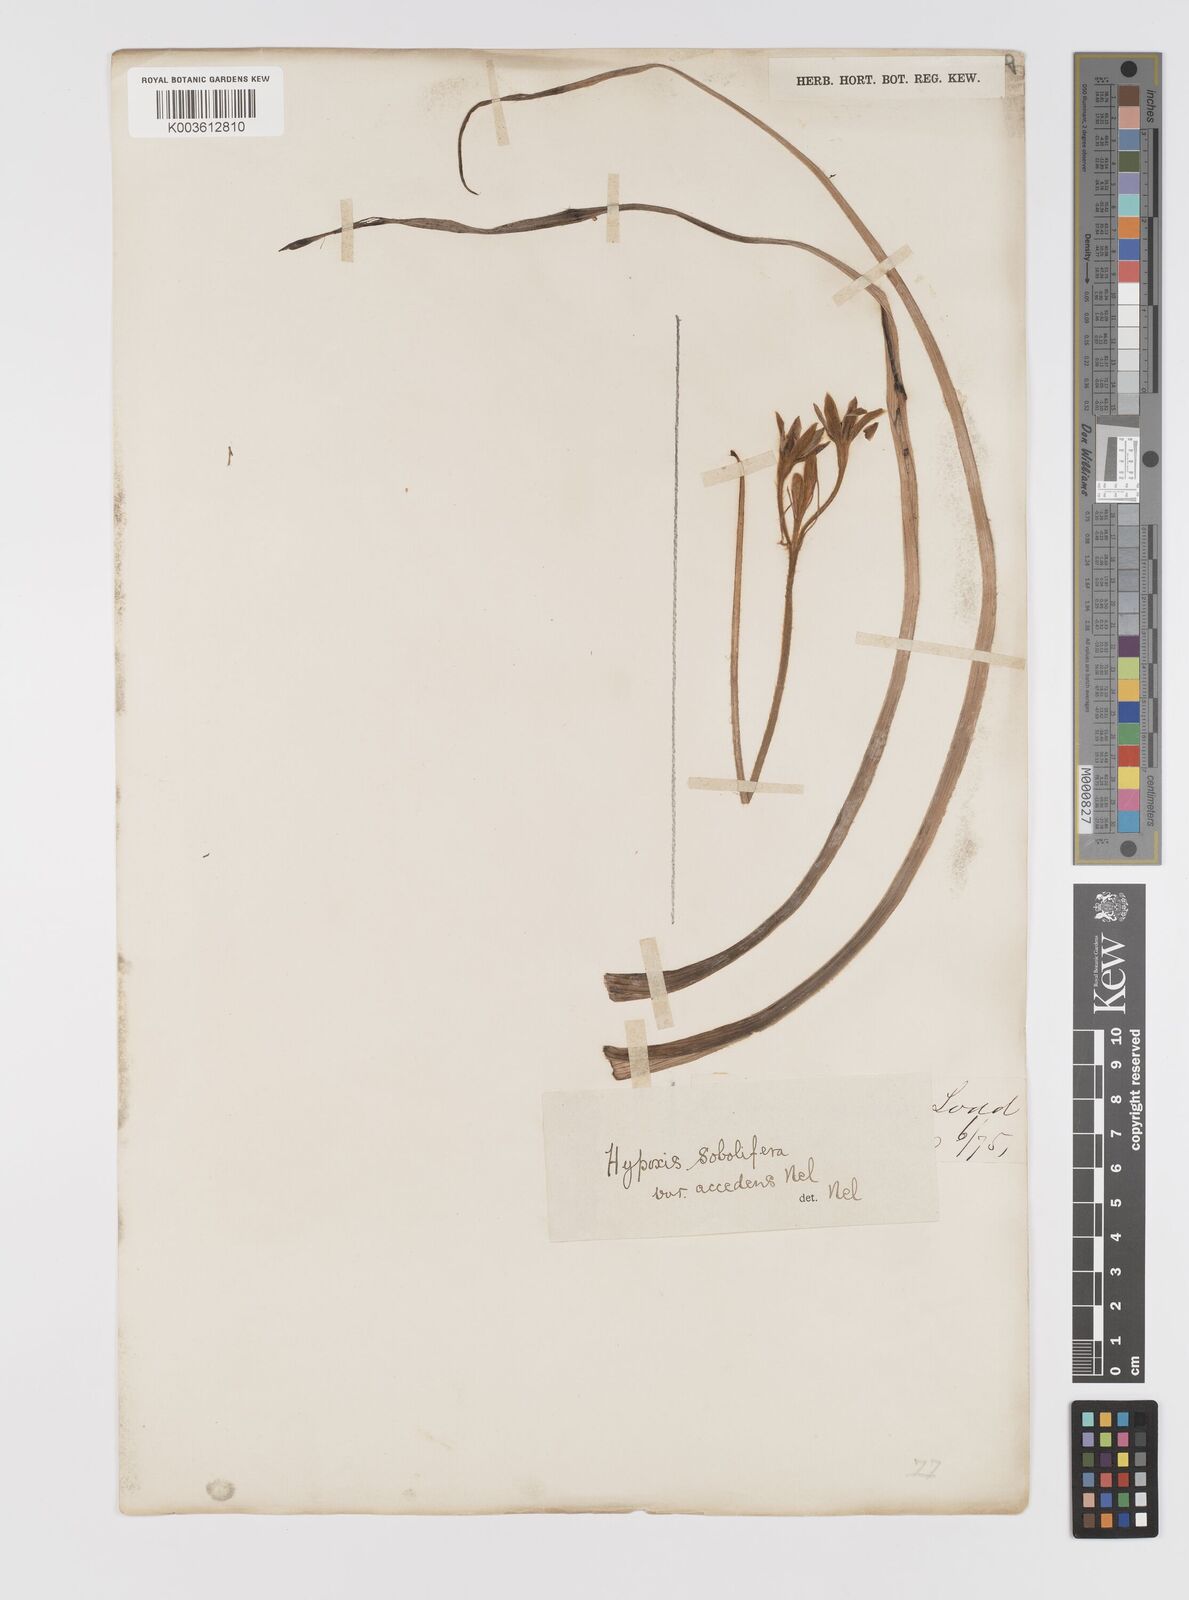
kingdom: Plantae
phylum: Tracheophyta
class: Liliopsida
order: Asparagales
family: Hypoxidaceae
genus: Hypoxis
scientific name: Hypoxis sobolifera
